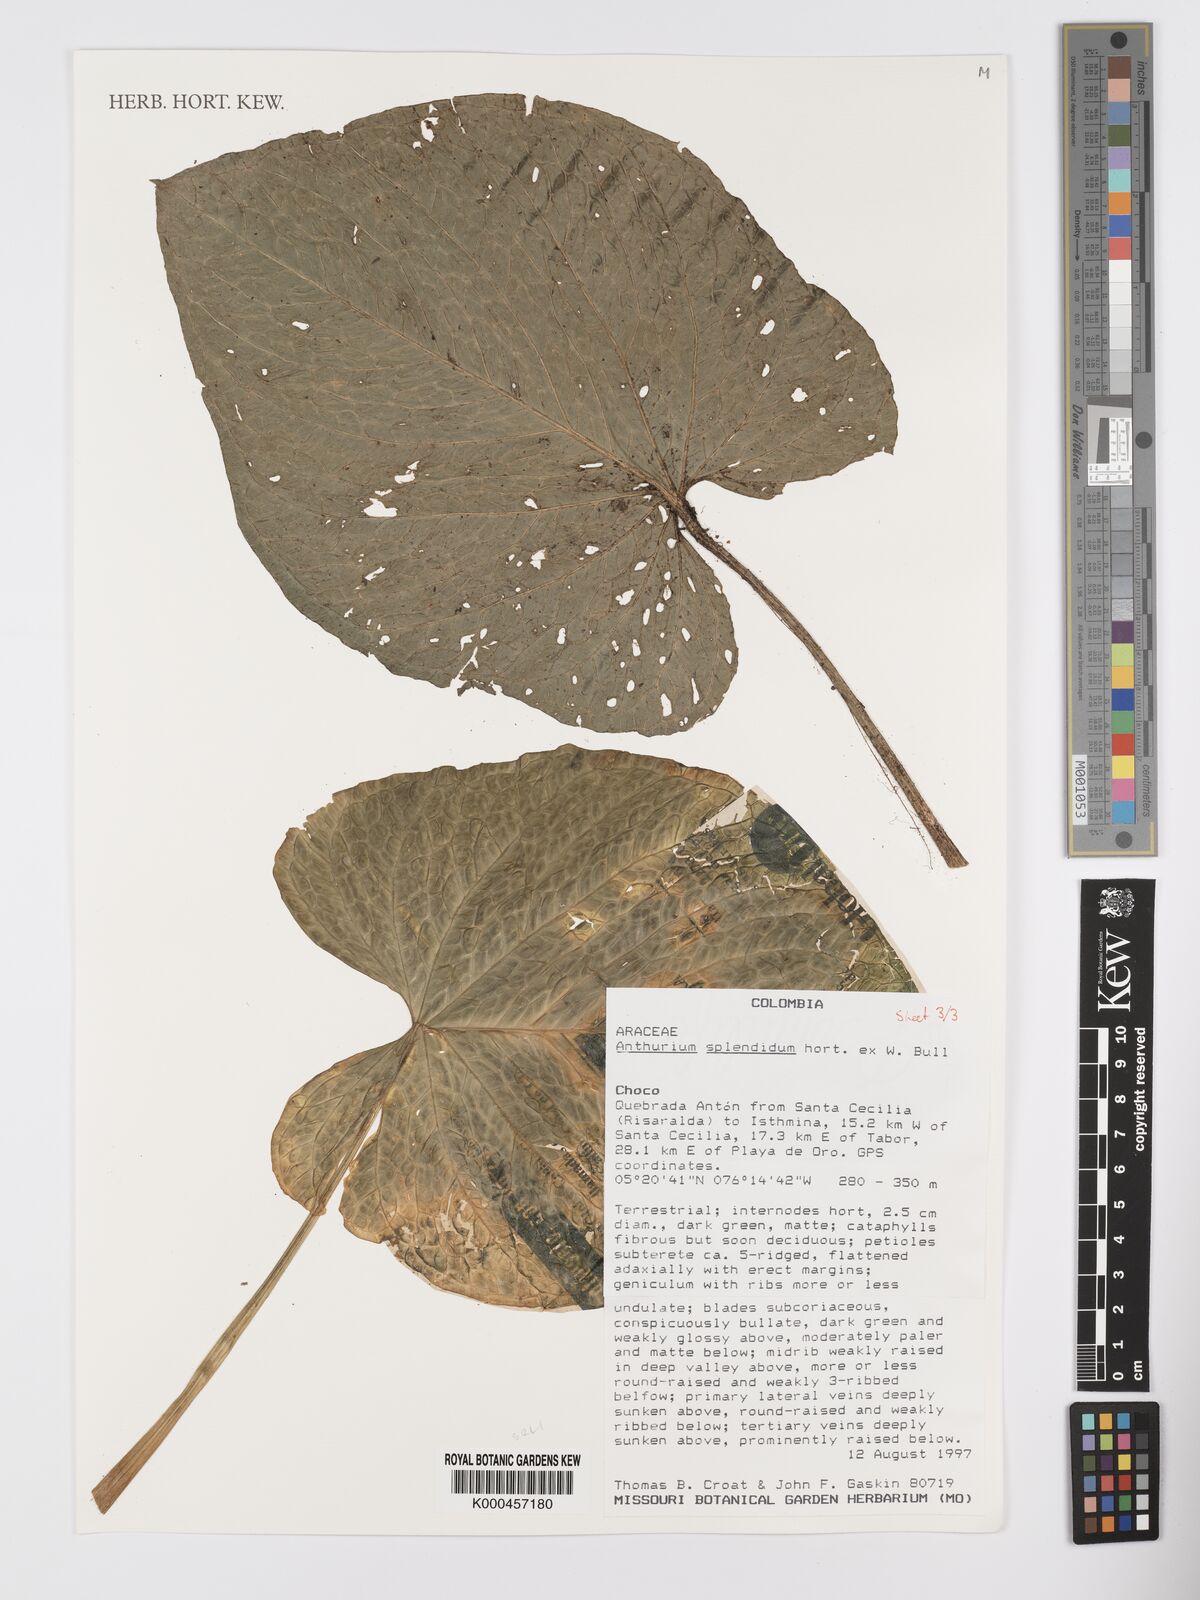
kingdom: Plantae
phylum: Tracheophyta
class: Liliopsida
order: Alismatales
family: Araceae
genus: Anthurium
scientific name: Anthurium splendidum
